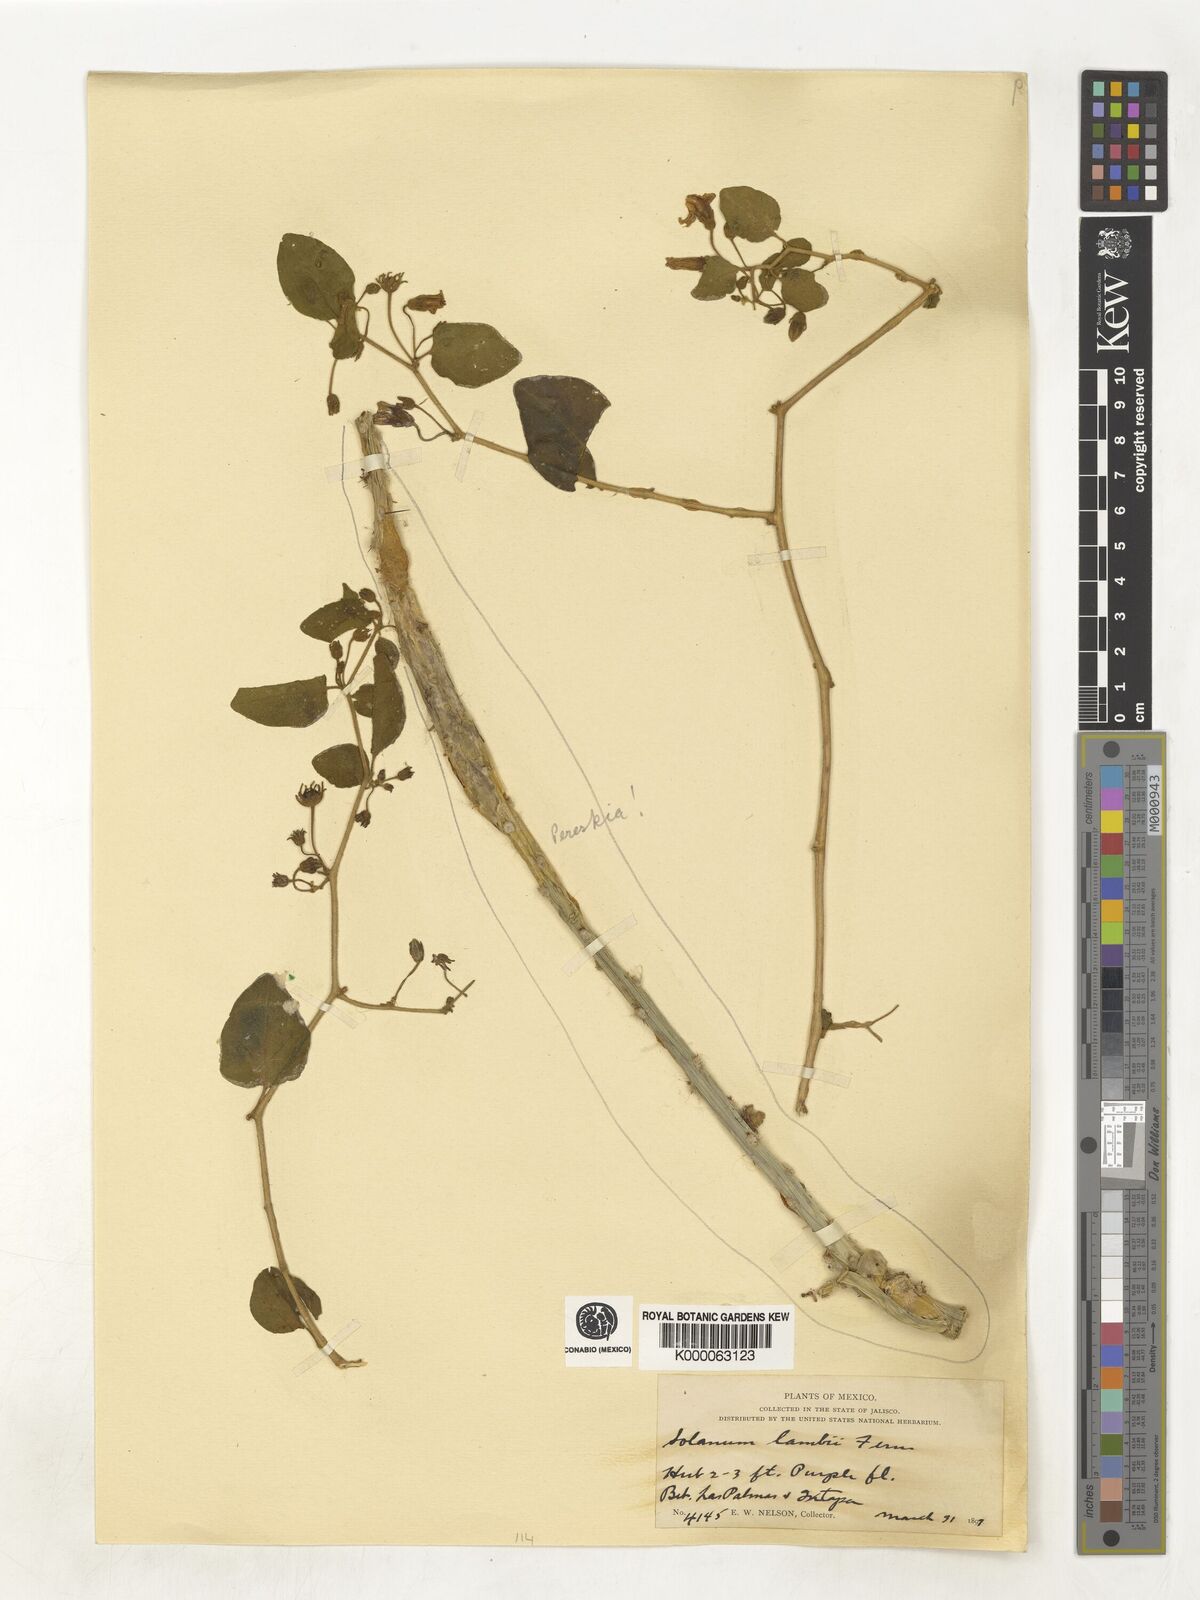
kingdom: Plantae
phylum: Tracheophyta
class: Magnoliopsida
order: Solanales
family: Solanaceae
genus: Lycianthes
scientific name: Lycianthes scandens
